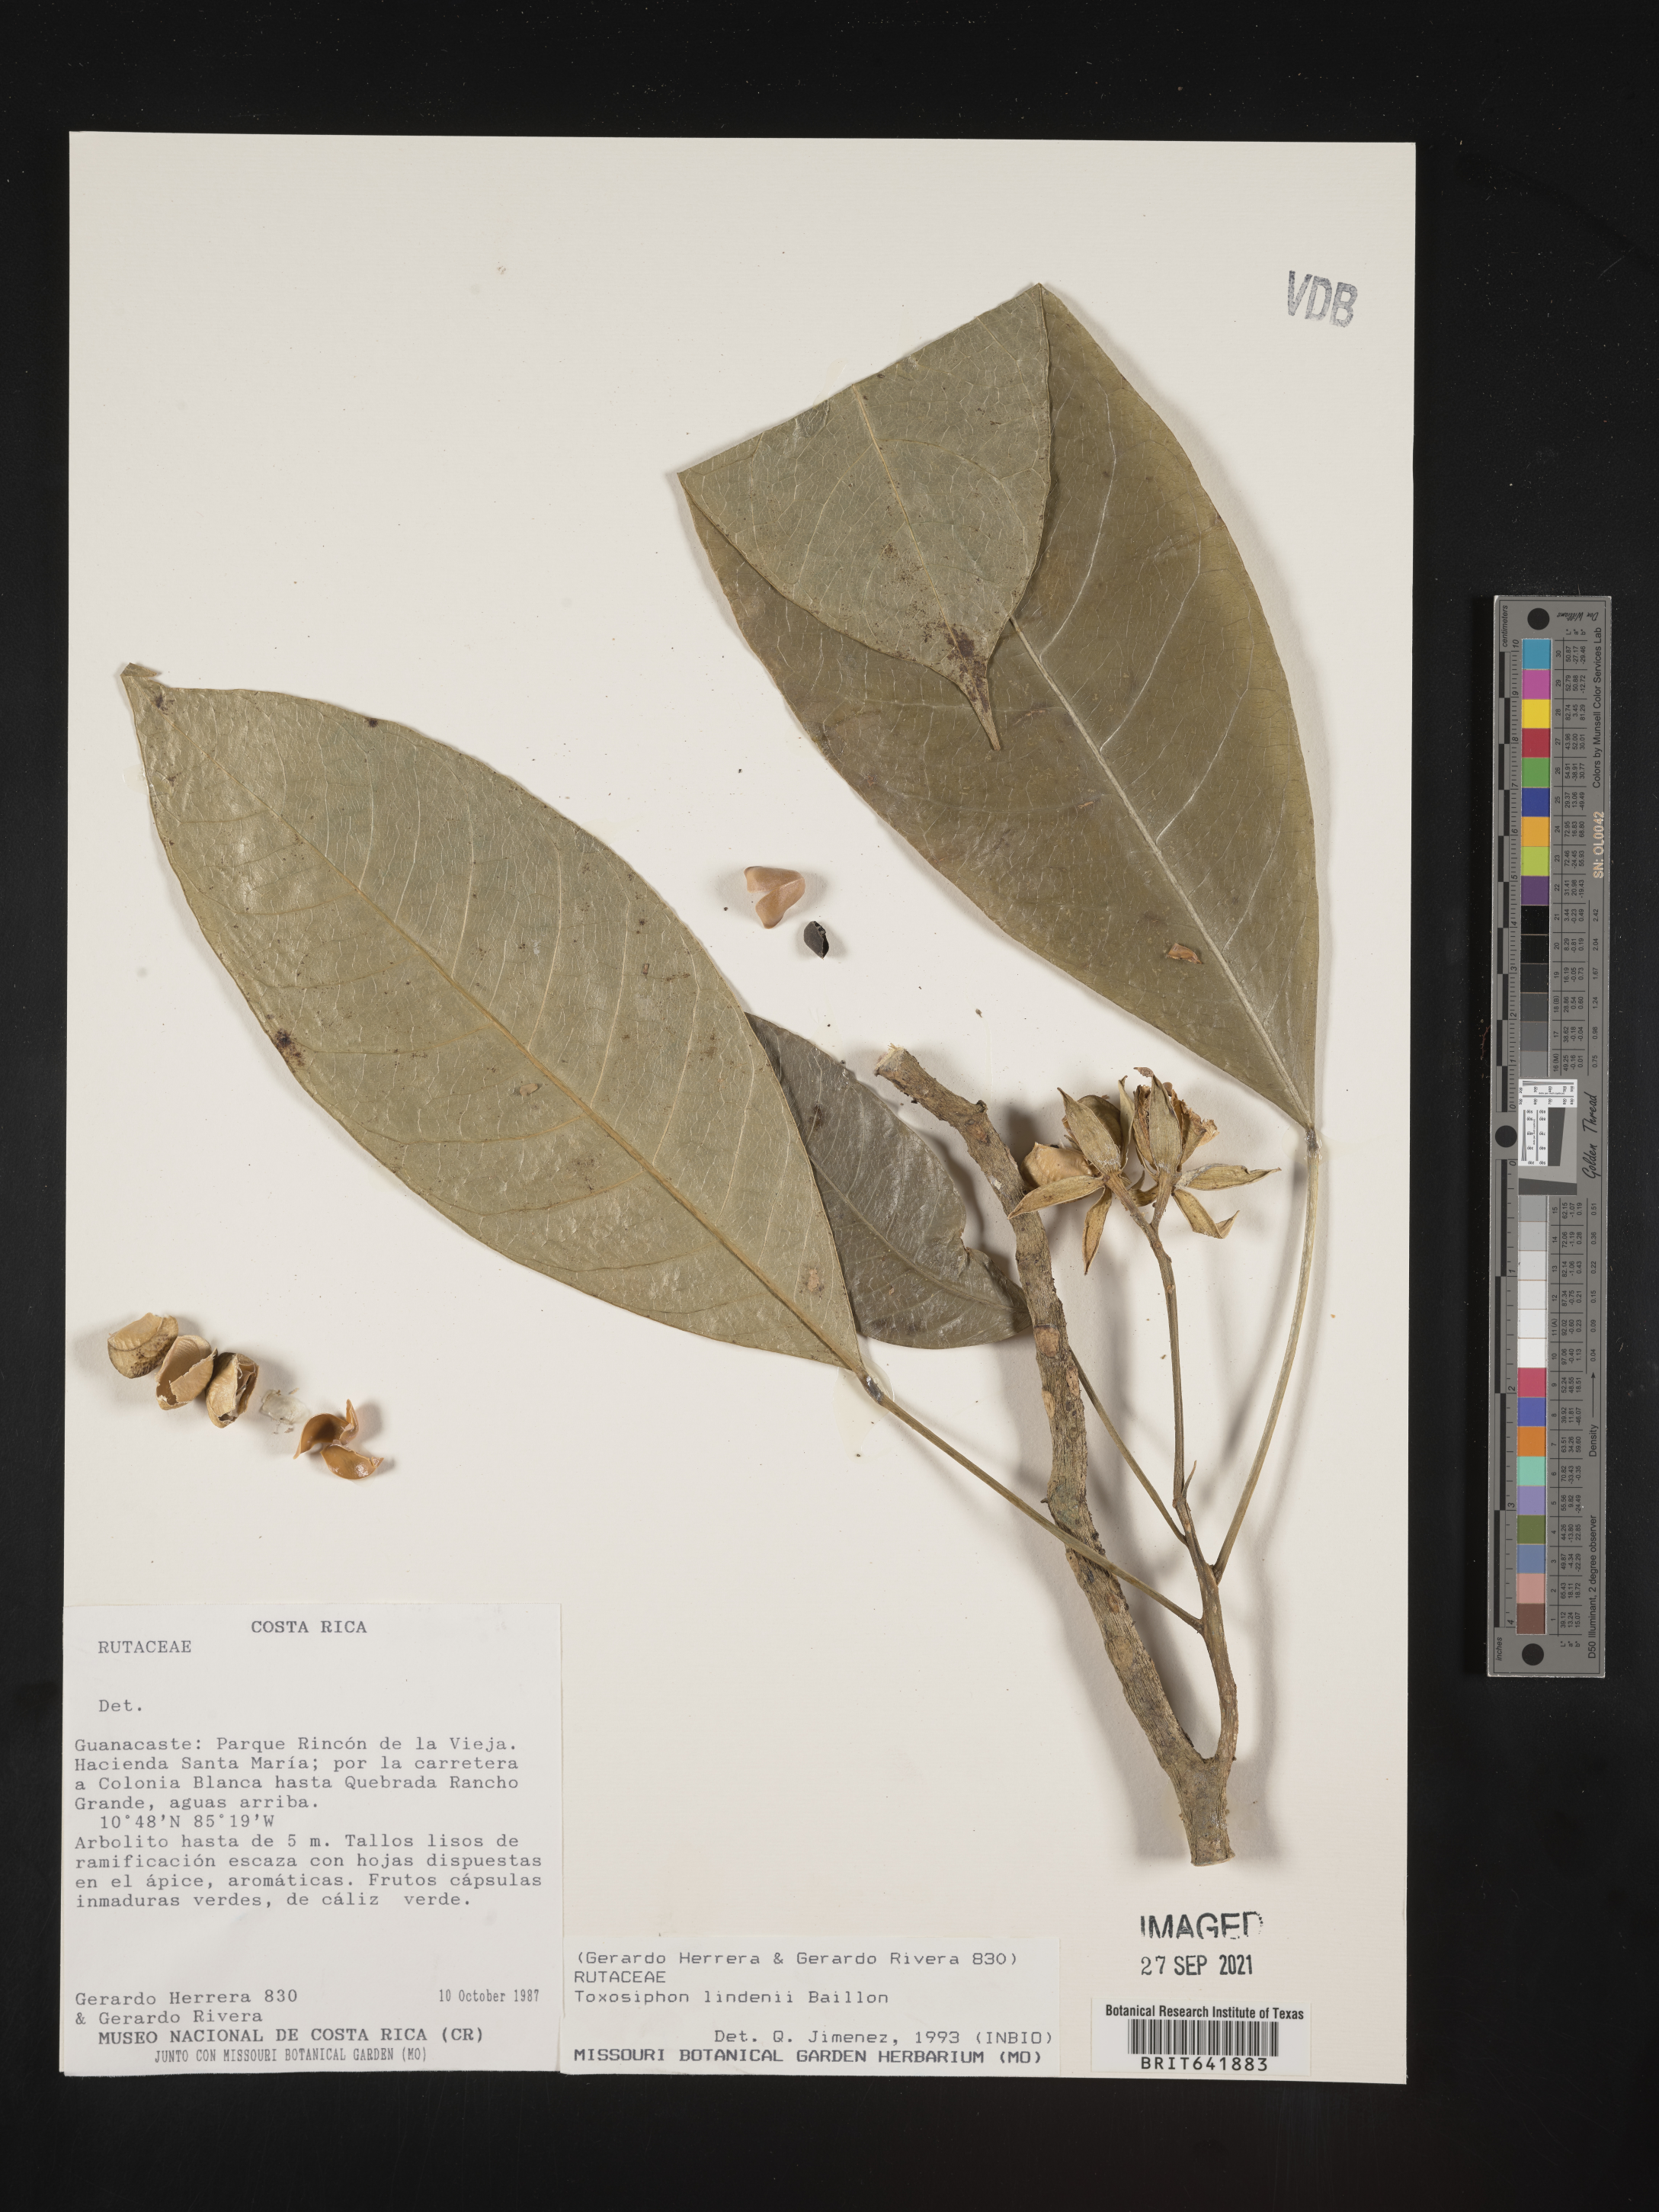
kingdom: Plantae
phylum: Tracheophyta
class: Magnoliopsida
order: Sapindales
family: Rutaceae
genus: Toxosiphon
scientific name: Toxosiphon lindenii
